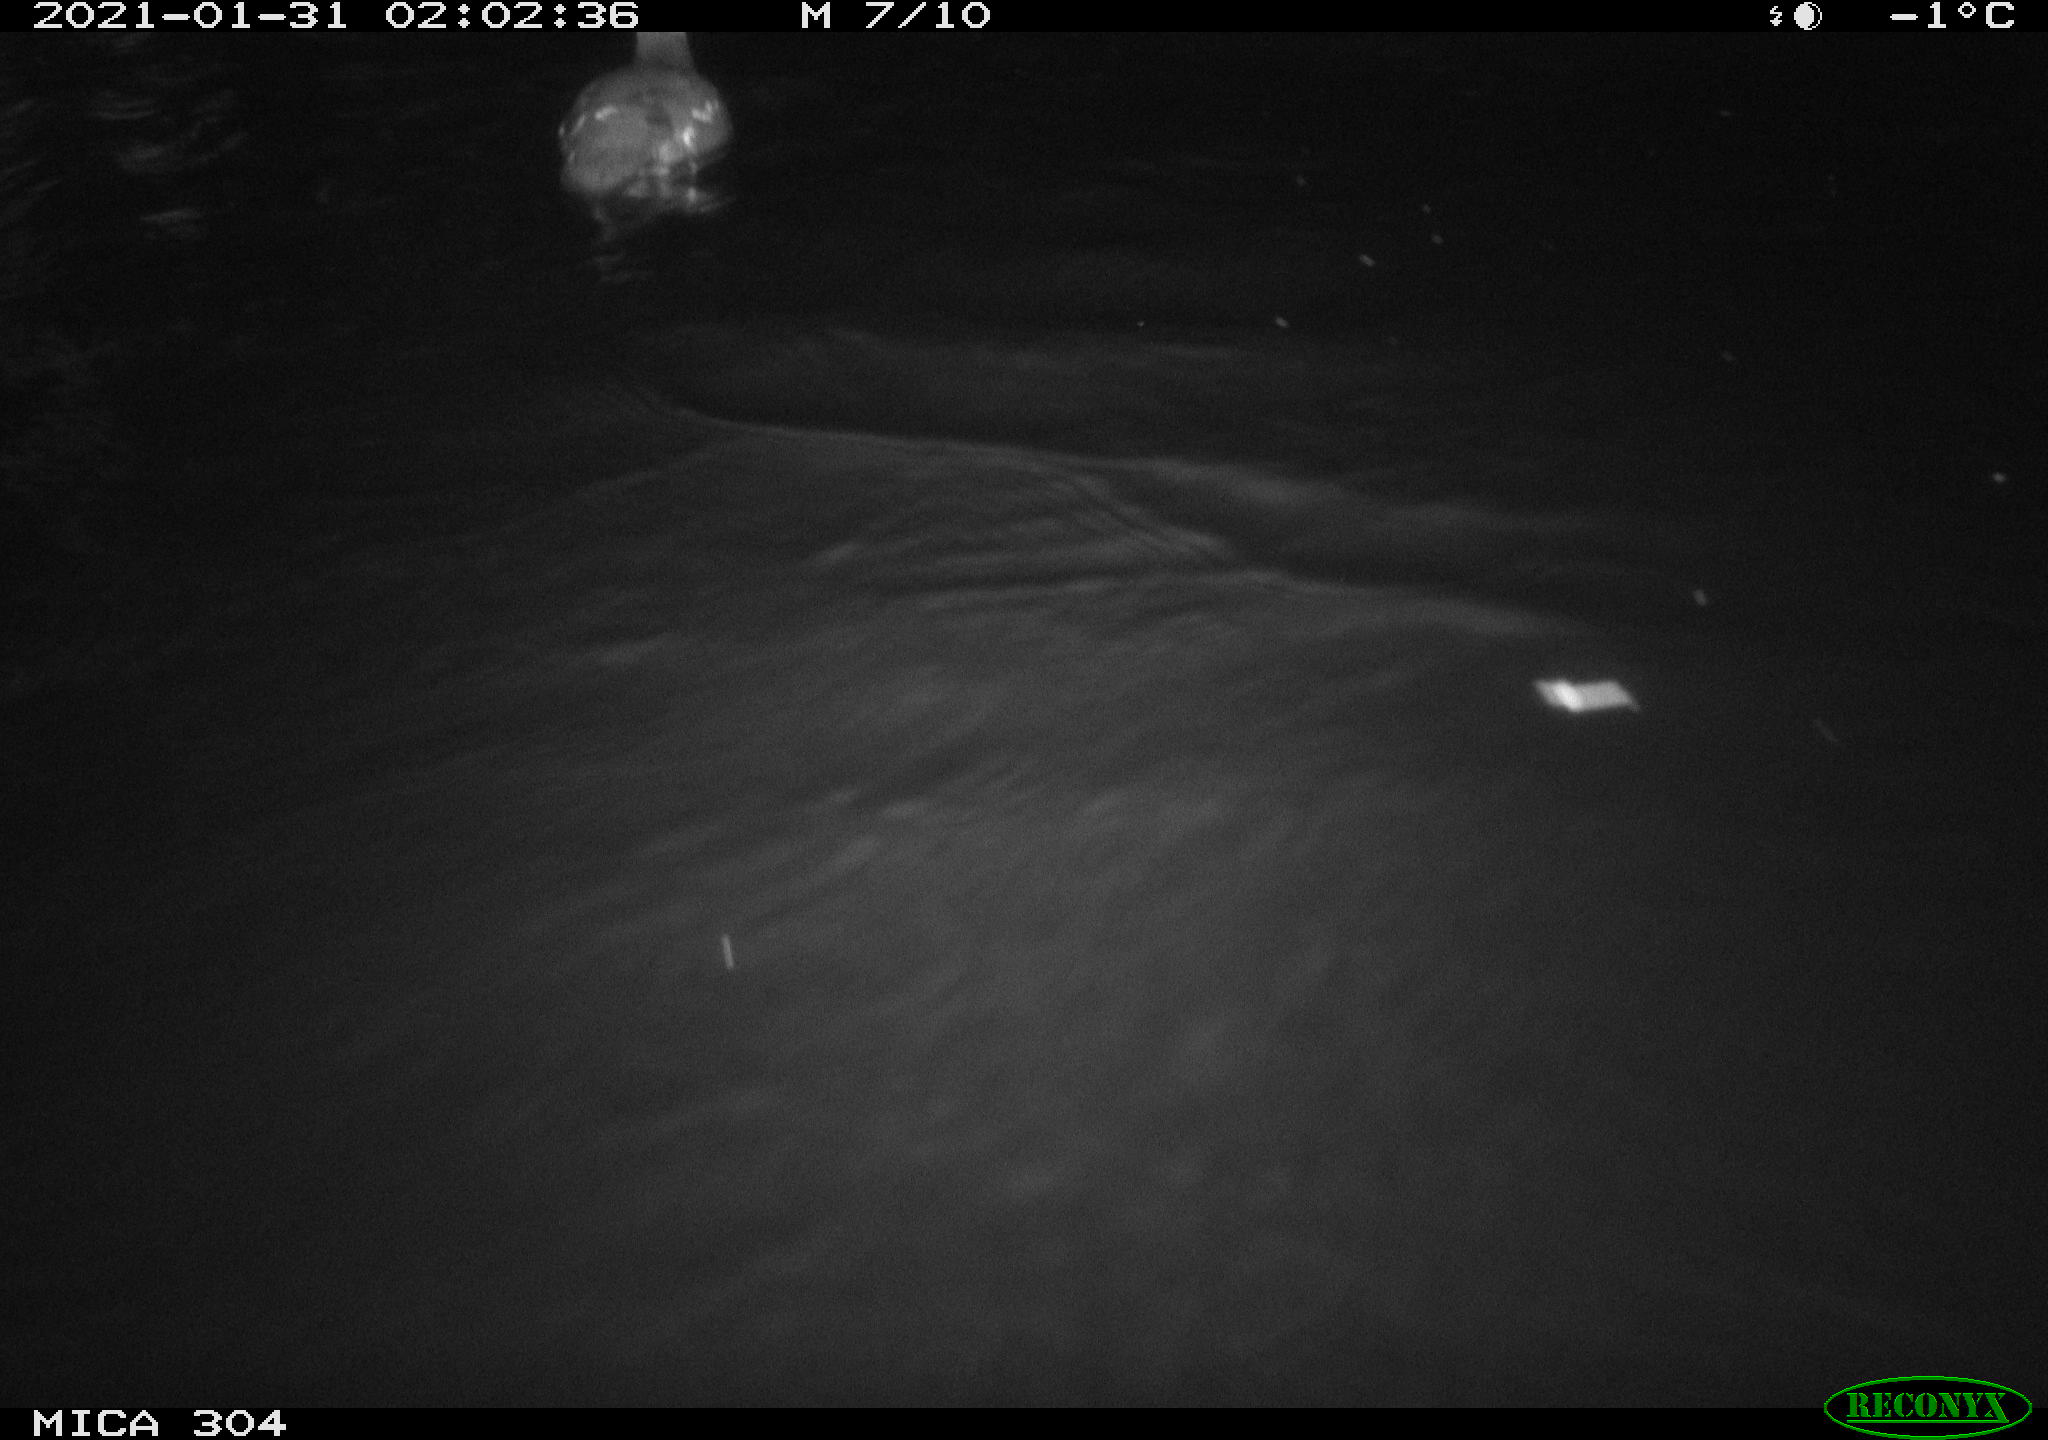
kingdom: Animalia
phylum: Chordata
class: Aves
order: Gruiformes
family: Rallidae
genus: Gallinula
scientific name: Gallinula chloropus
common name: Common moorhen
